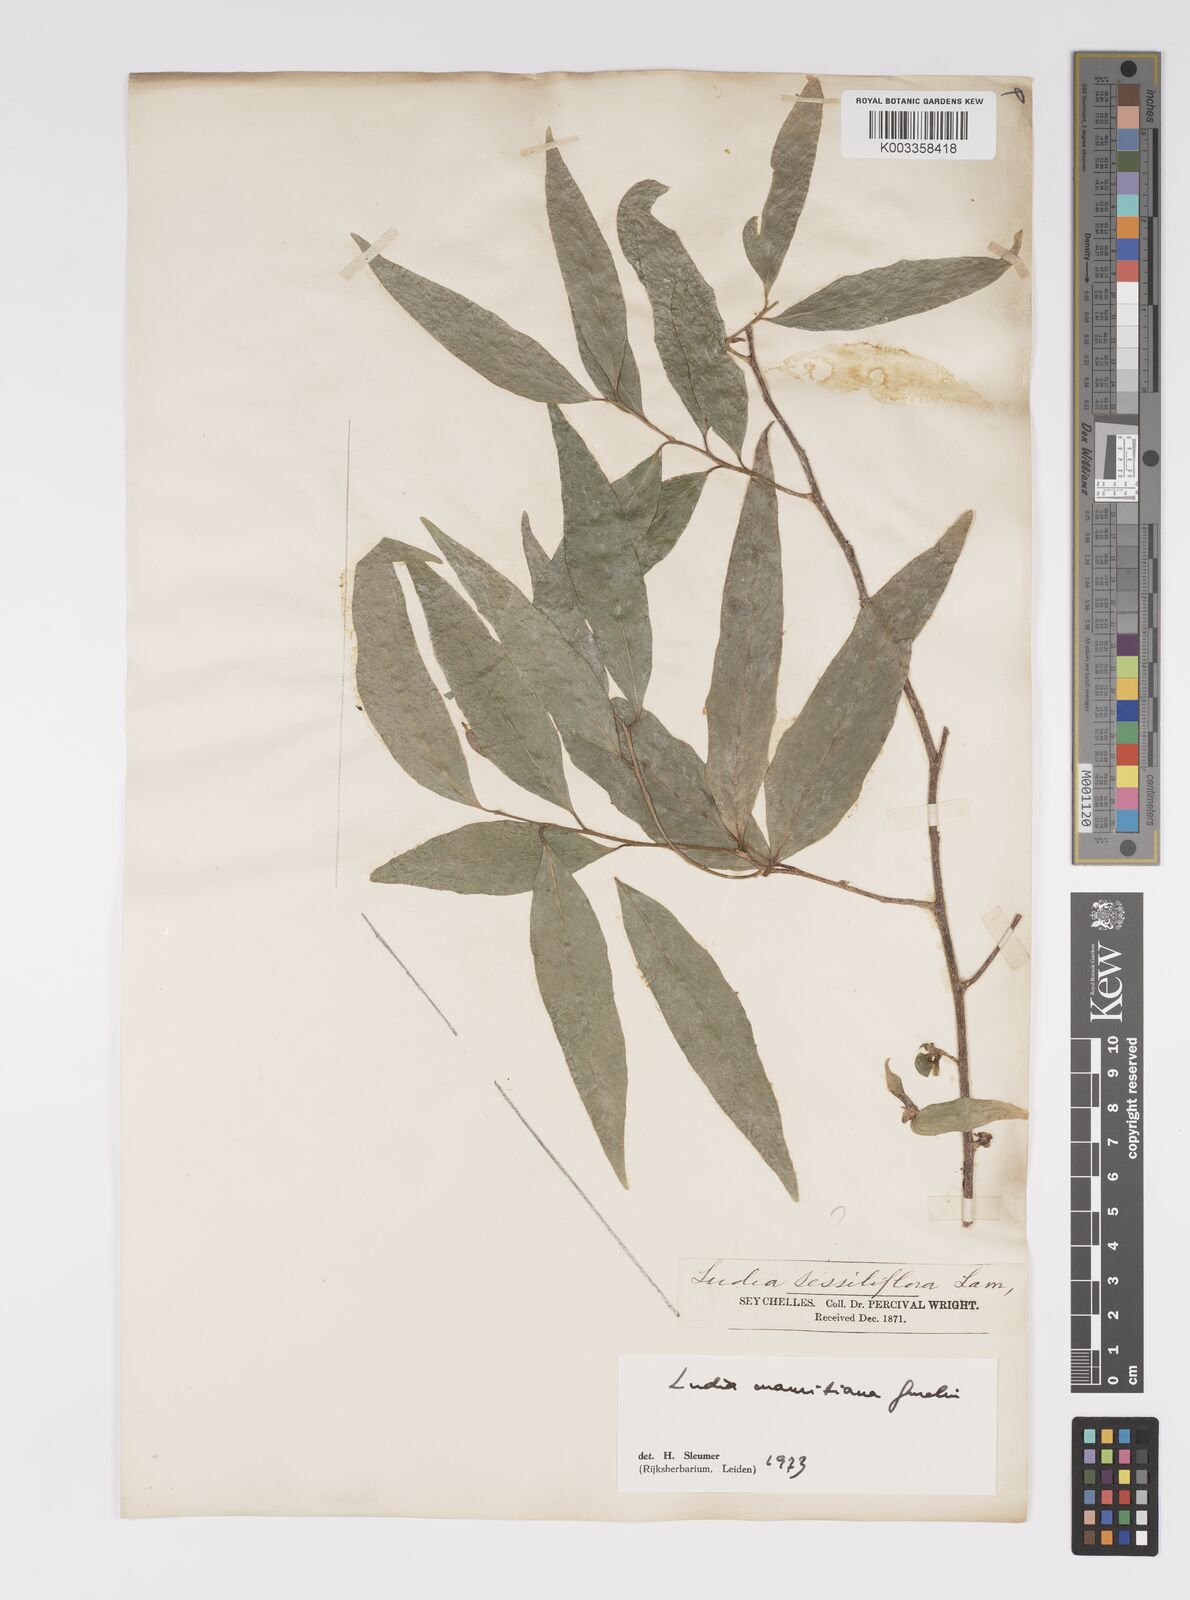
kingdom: Plantae
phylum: Tracheophyta
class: Magnoliopsida
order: Malpighiales
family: Salicaceae
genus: Ludia
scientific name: Ludia mauritiana
